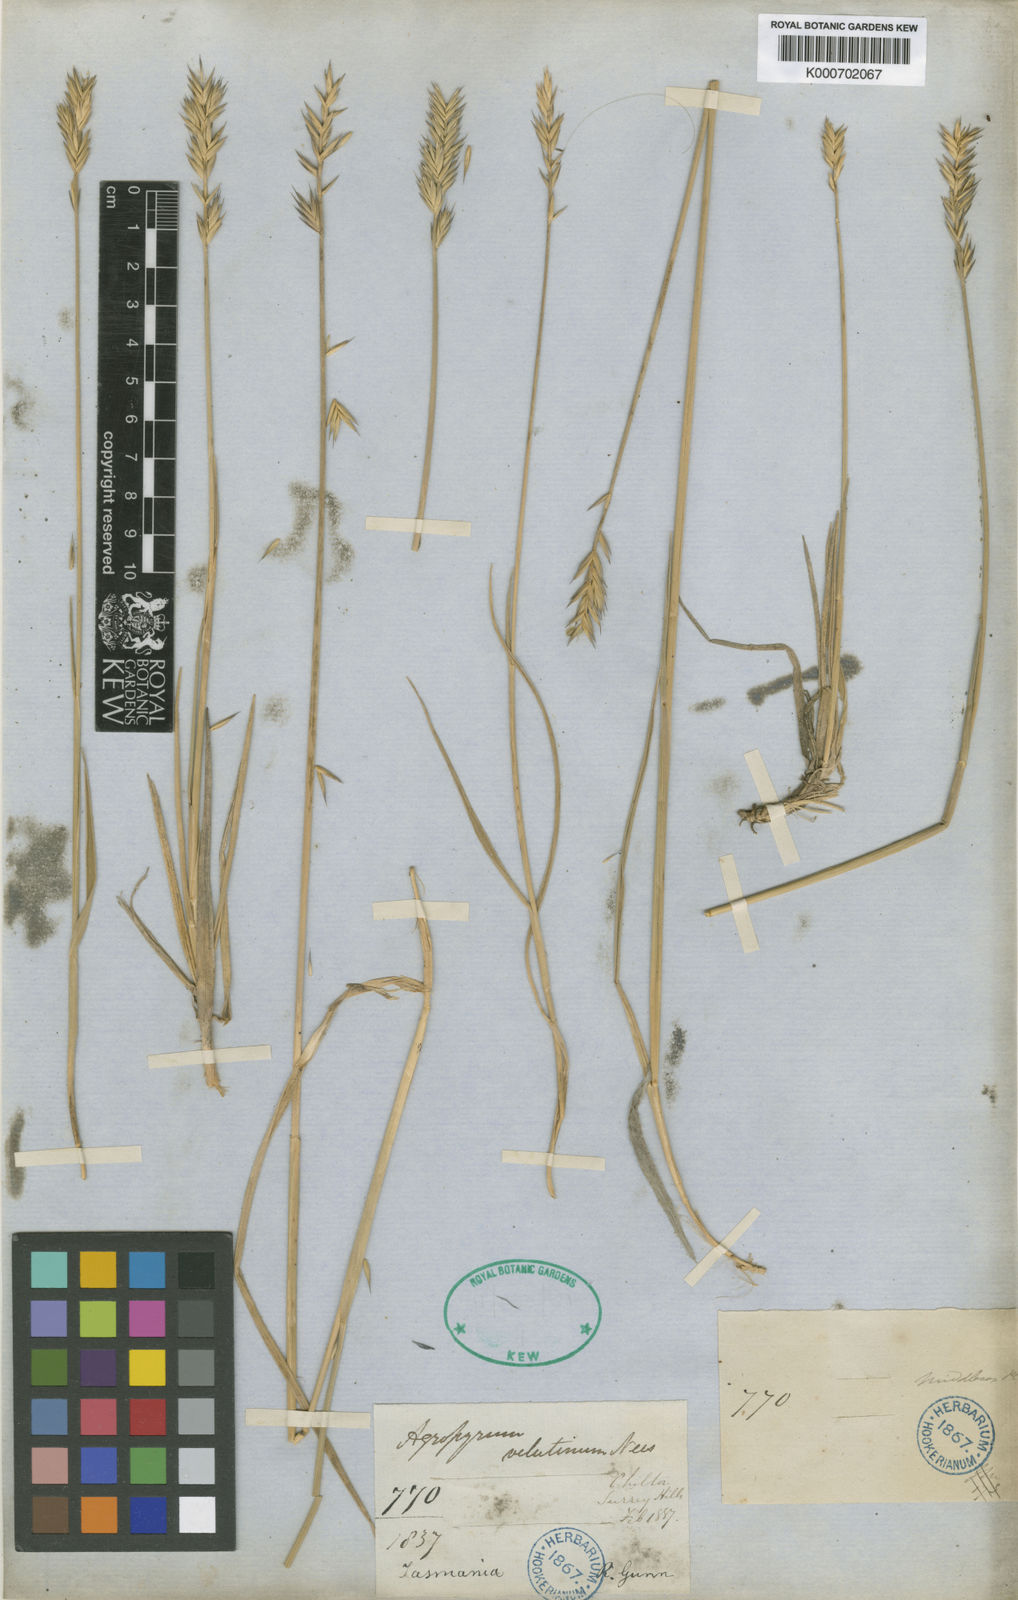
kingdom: Plantae
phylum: Tracheophyta
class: Liliopsida
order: Poales
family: Poaceae
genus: Australopyrum
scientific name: Australopyrum velutinum
